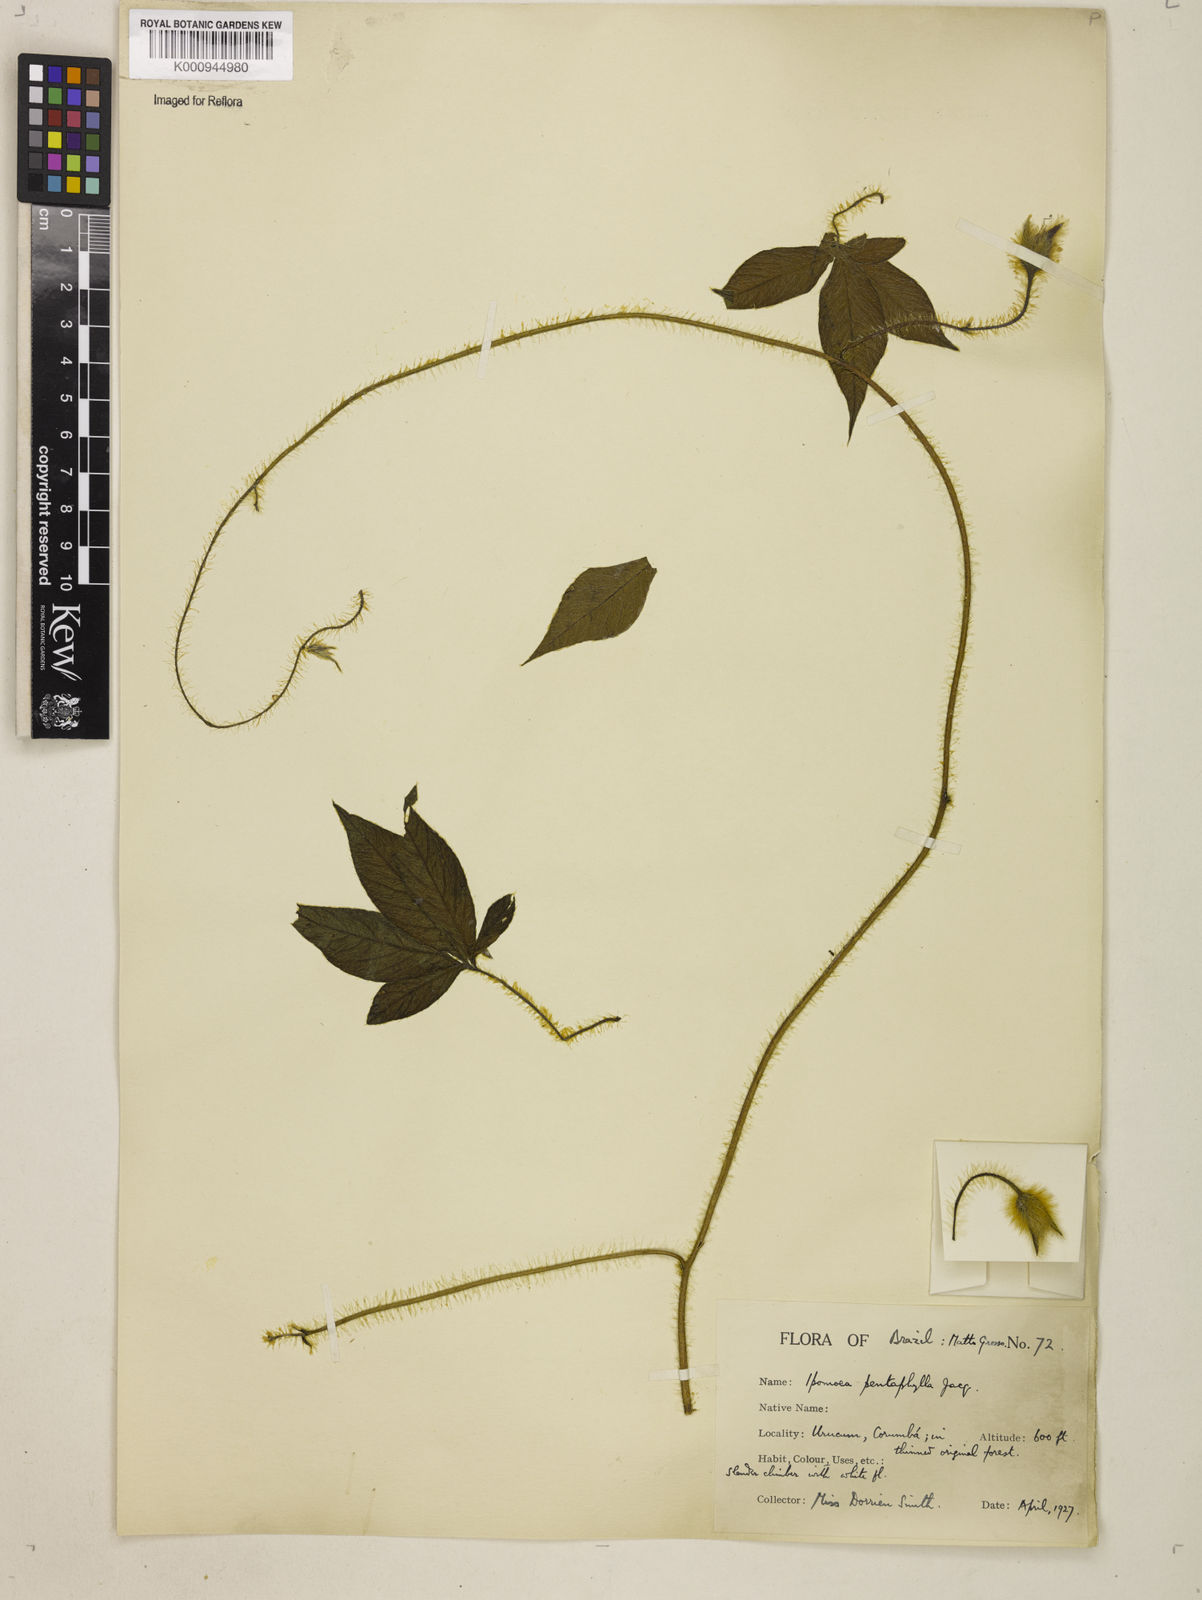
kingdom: Plantae
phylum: Tracheophyta
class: Magnoliopsida
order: Solanales
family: Convolvulaceae
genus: Distimake
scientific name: Distimake aegyptius
